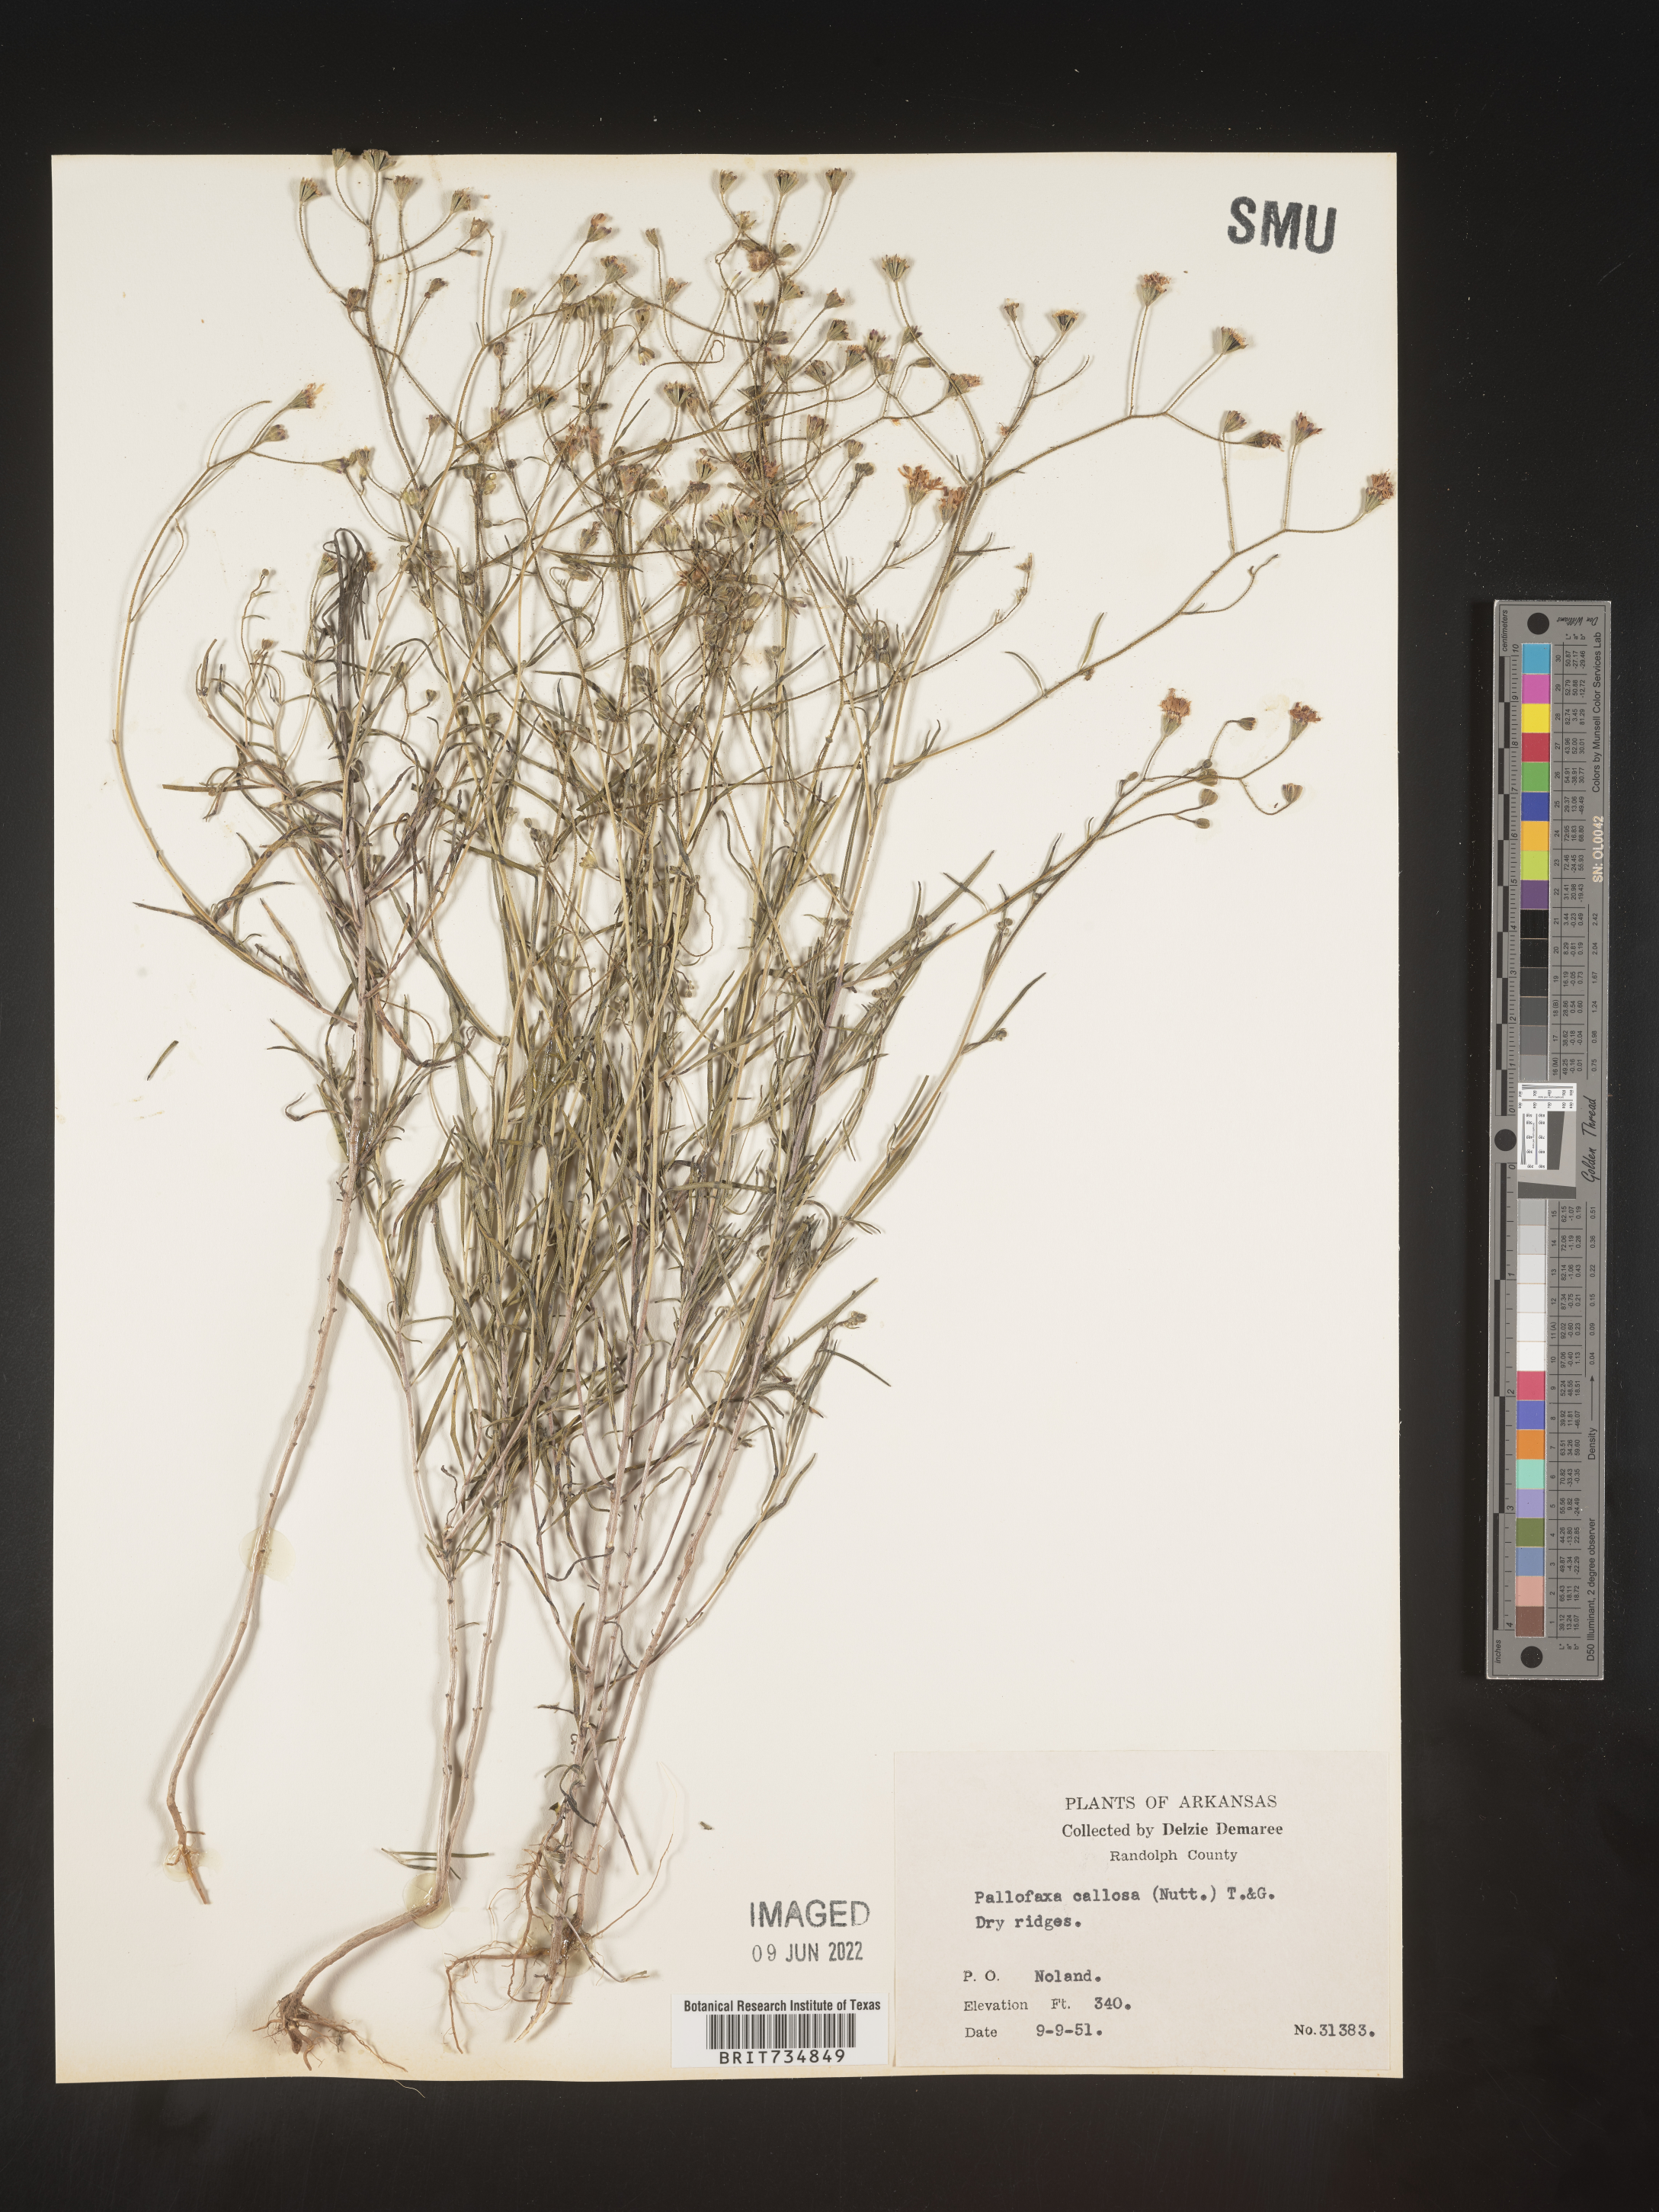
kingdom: Plantae
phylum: Tracheophyta
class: Magnoliopsida
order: Asterales
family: Asteraceae
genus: Palafoxia
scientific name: Palafoxia callosa
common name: Small palafox
